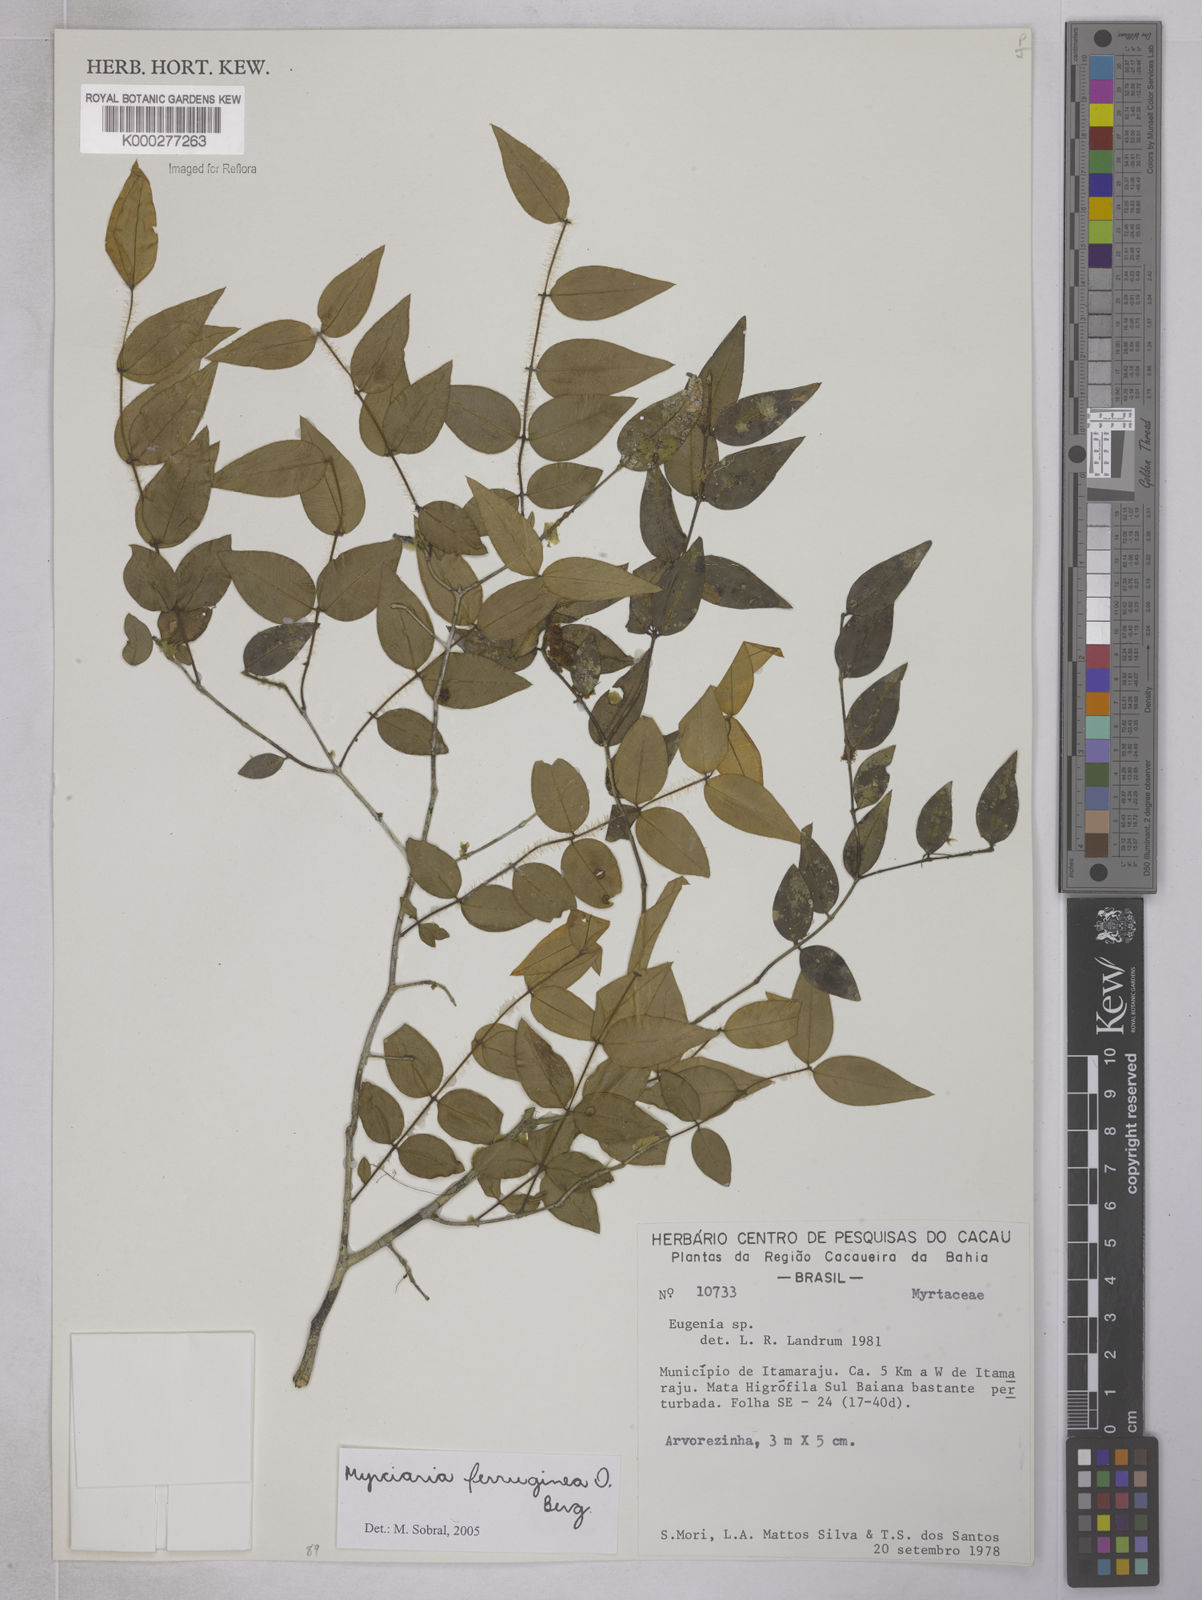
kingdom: Plantae
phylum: Tracheophyta
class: Magnoliopsida
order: Myrtales
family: Myrtaceae
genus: Myrciaria
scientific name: Myrciaria ferruginea
